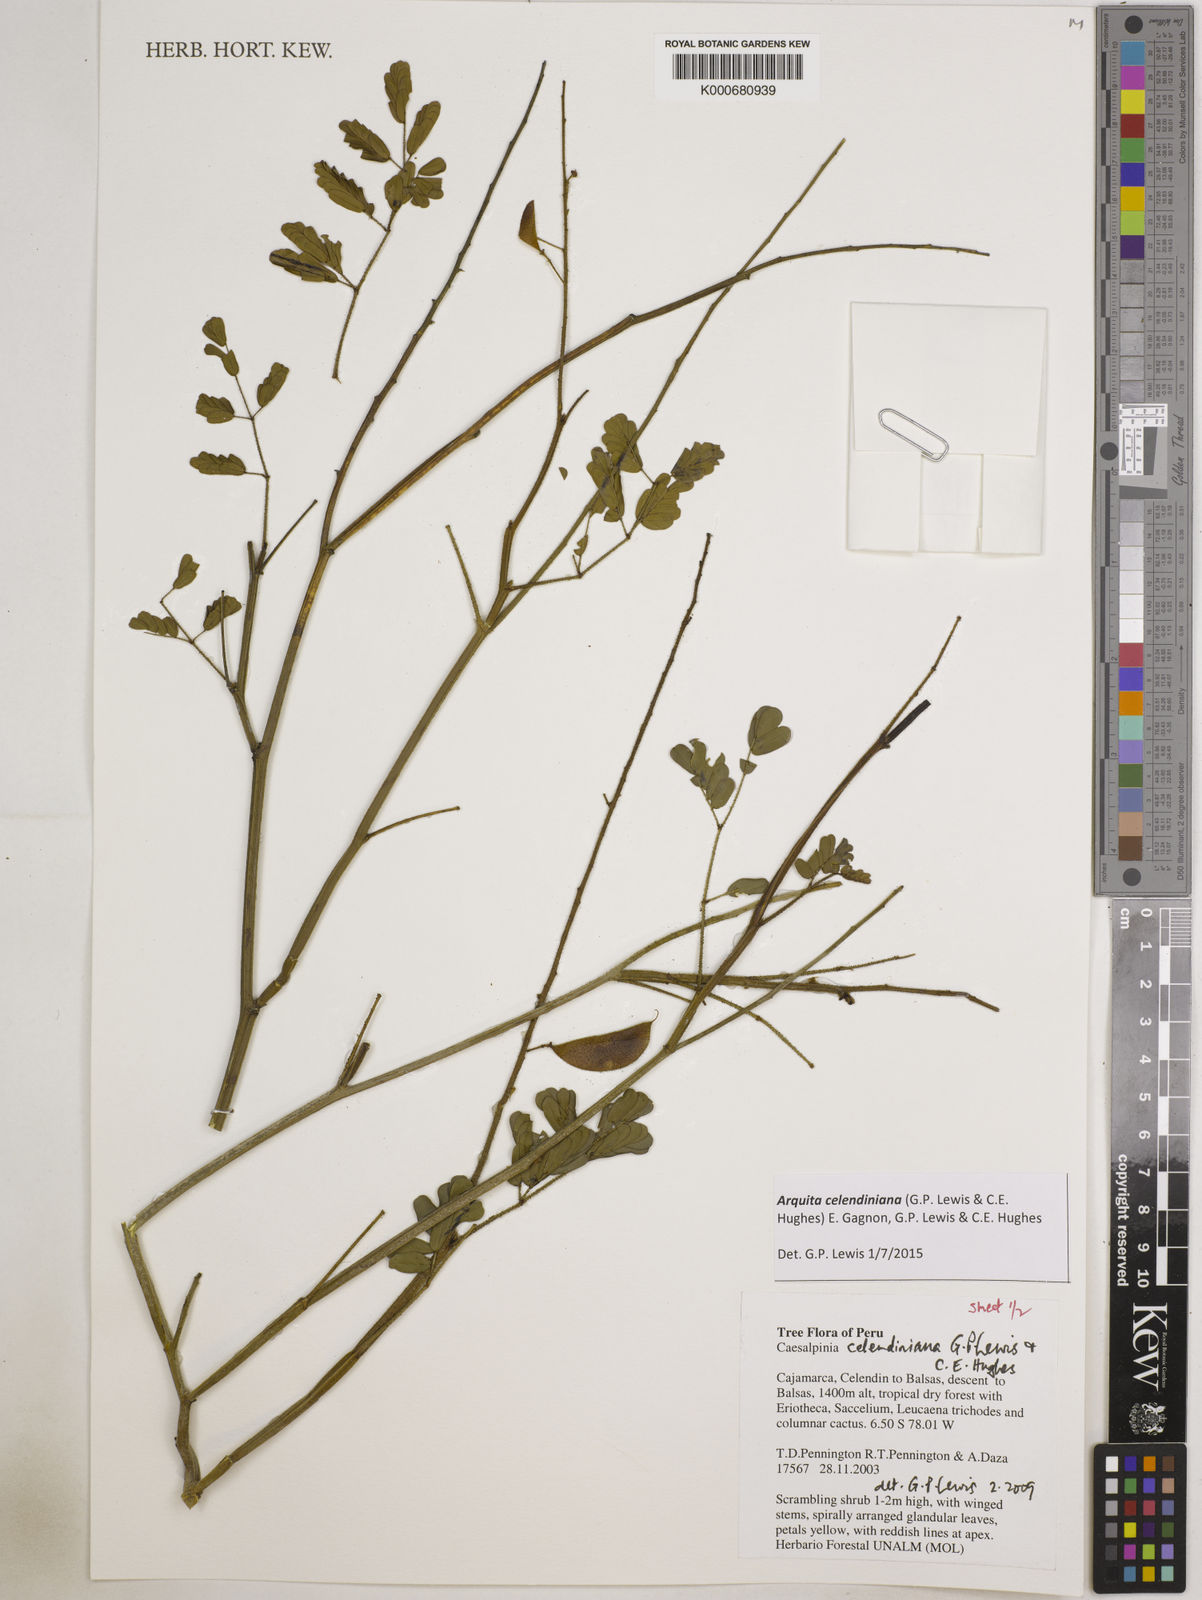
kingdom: Plantae
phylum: Tracheophyta
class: Magnoliopsida
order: Fabales
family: Fabaceae
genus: Arquita
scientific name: Arquita celendiniana
